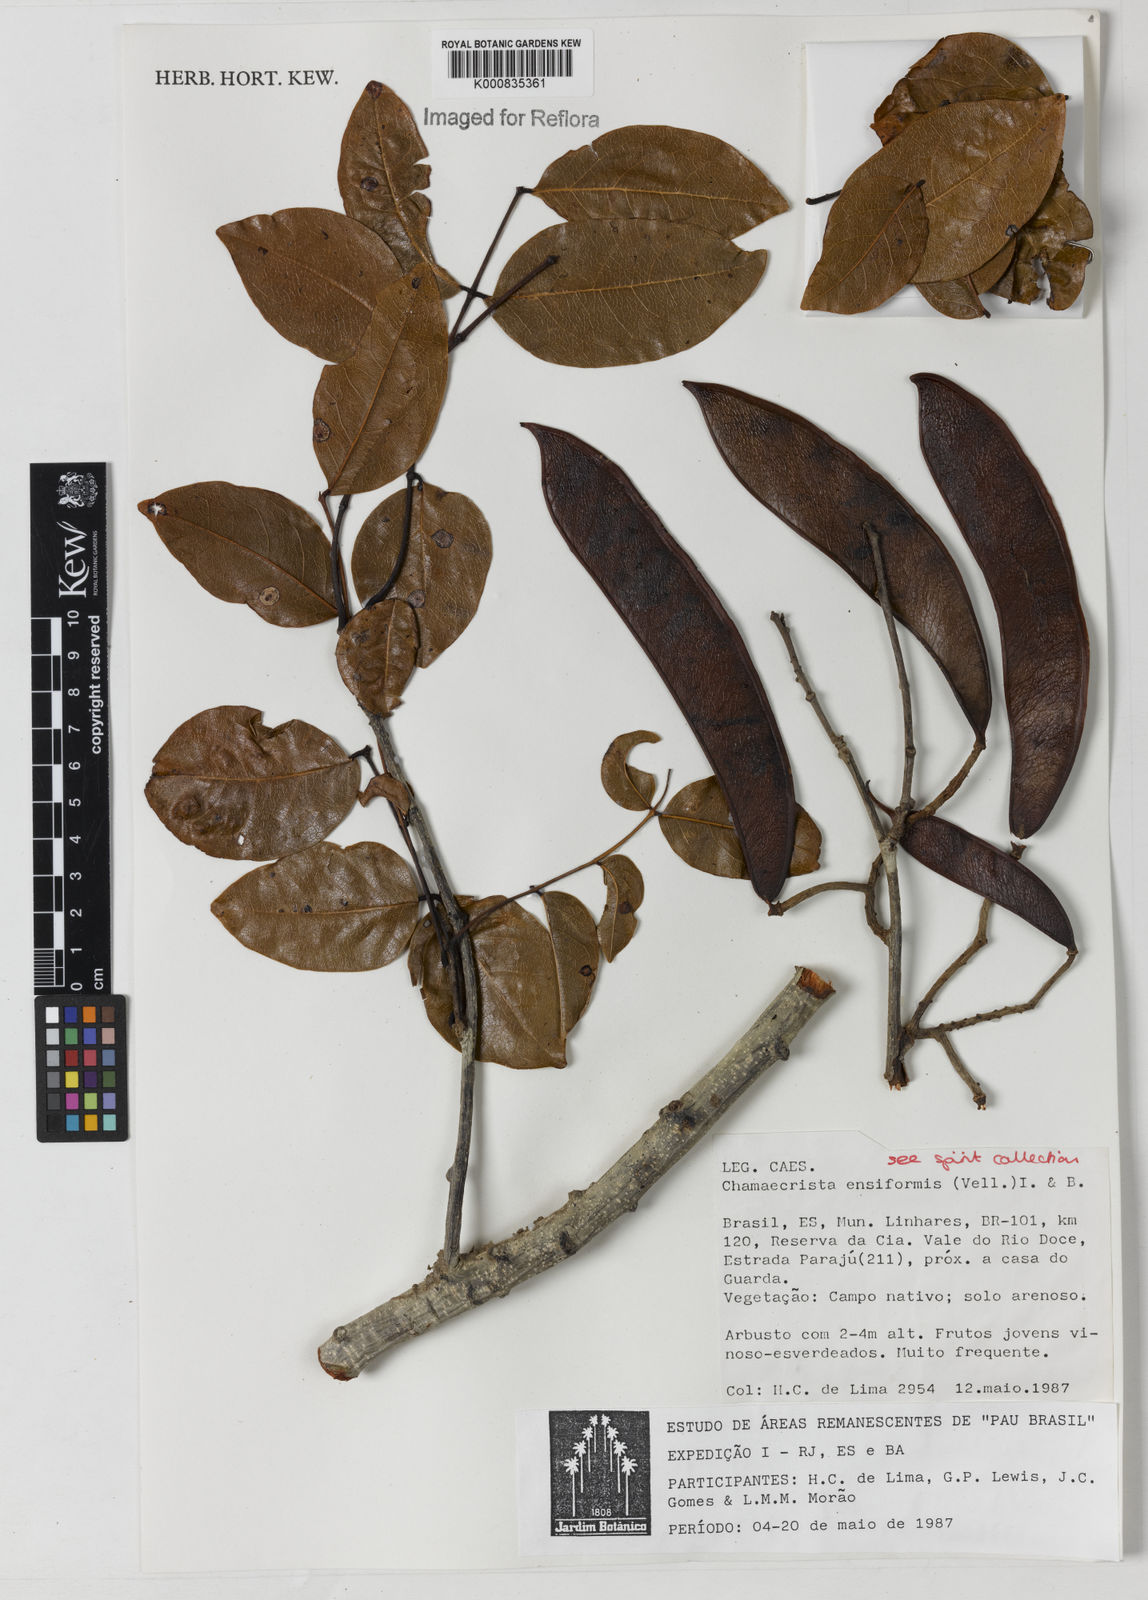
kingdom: Plantae
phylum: Tracheophyta
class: Magnoliopsida
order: Fabales
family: Fabaceae
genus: Chamaecrista
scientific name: Chamaecrista ensiformis
